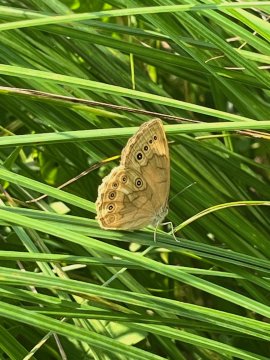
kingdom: Animalia
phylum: Arthropoda
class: Insecta
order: Lepidoptera
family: Nymphalidae
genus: Lethe
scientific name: Lethe eurydice
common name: Eyed Brown
